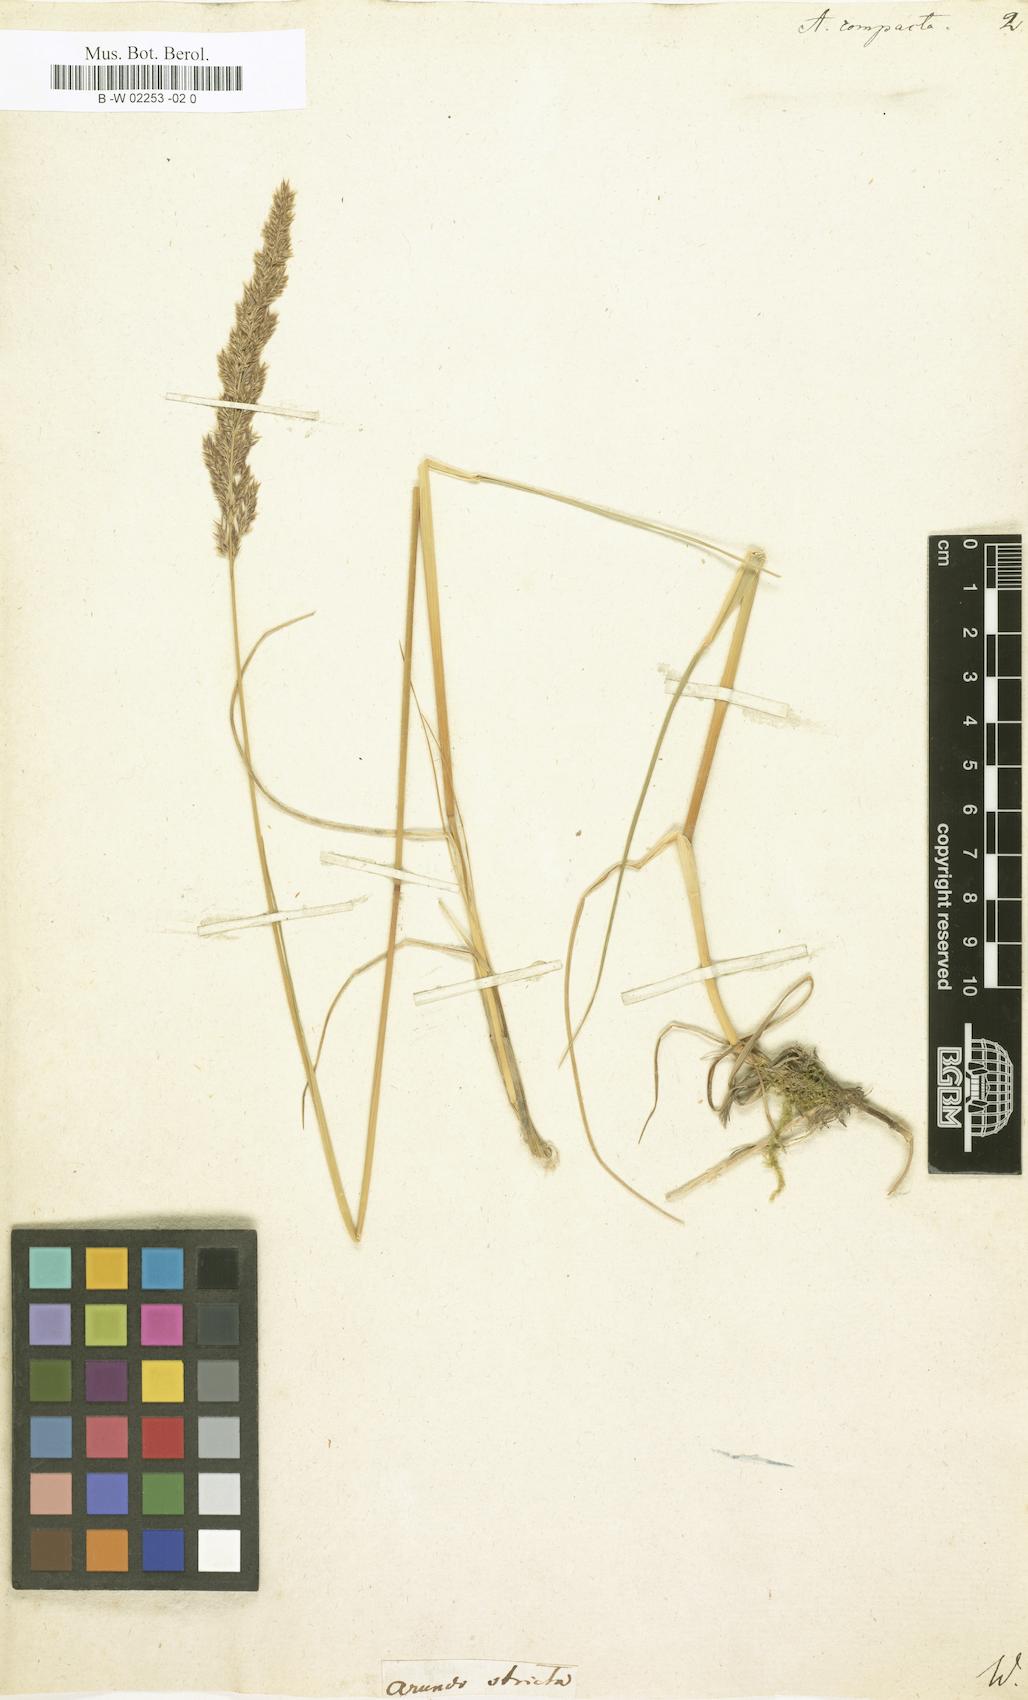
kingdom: Plantae
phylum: Tracheophyta
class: Liliopsida
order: Poales
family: Poaceae
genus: Arundo
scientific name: Arundo
